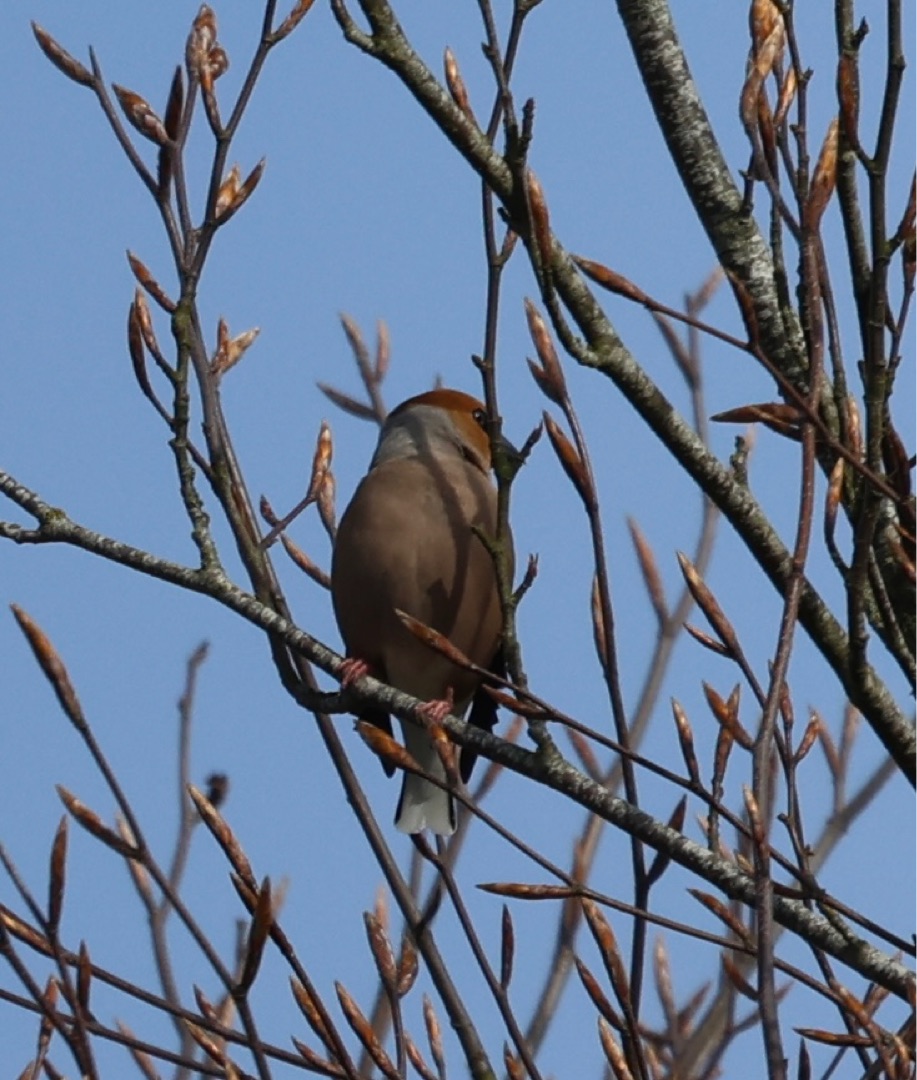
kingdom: Animalia
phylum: Chordata
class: Aves
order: Passeriformes
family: Fringillidae
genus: Coccothraustes
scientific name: Coccothraustes coccothraustes
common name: Kernebider
